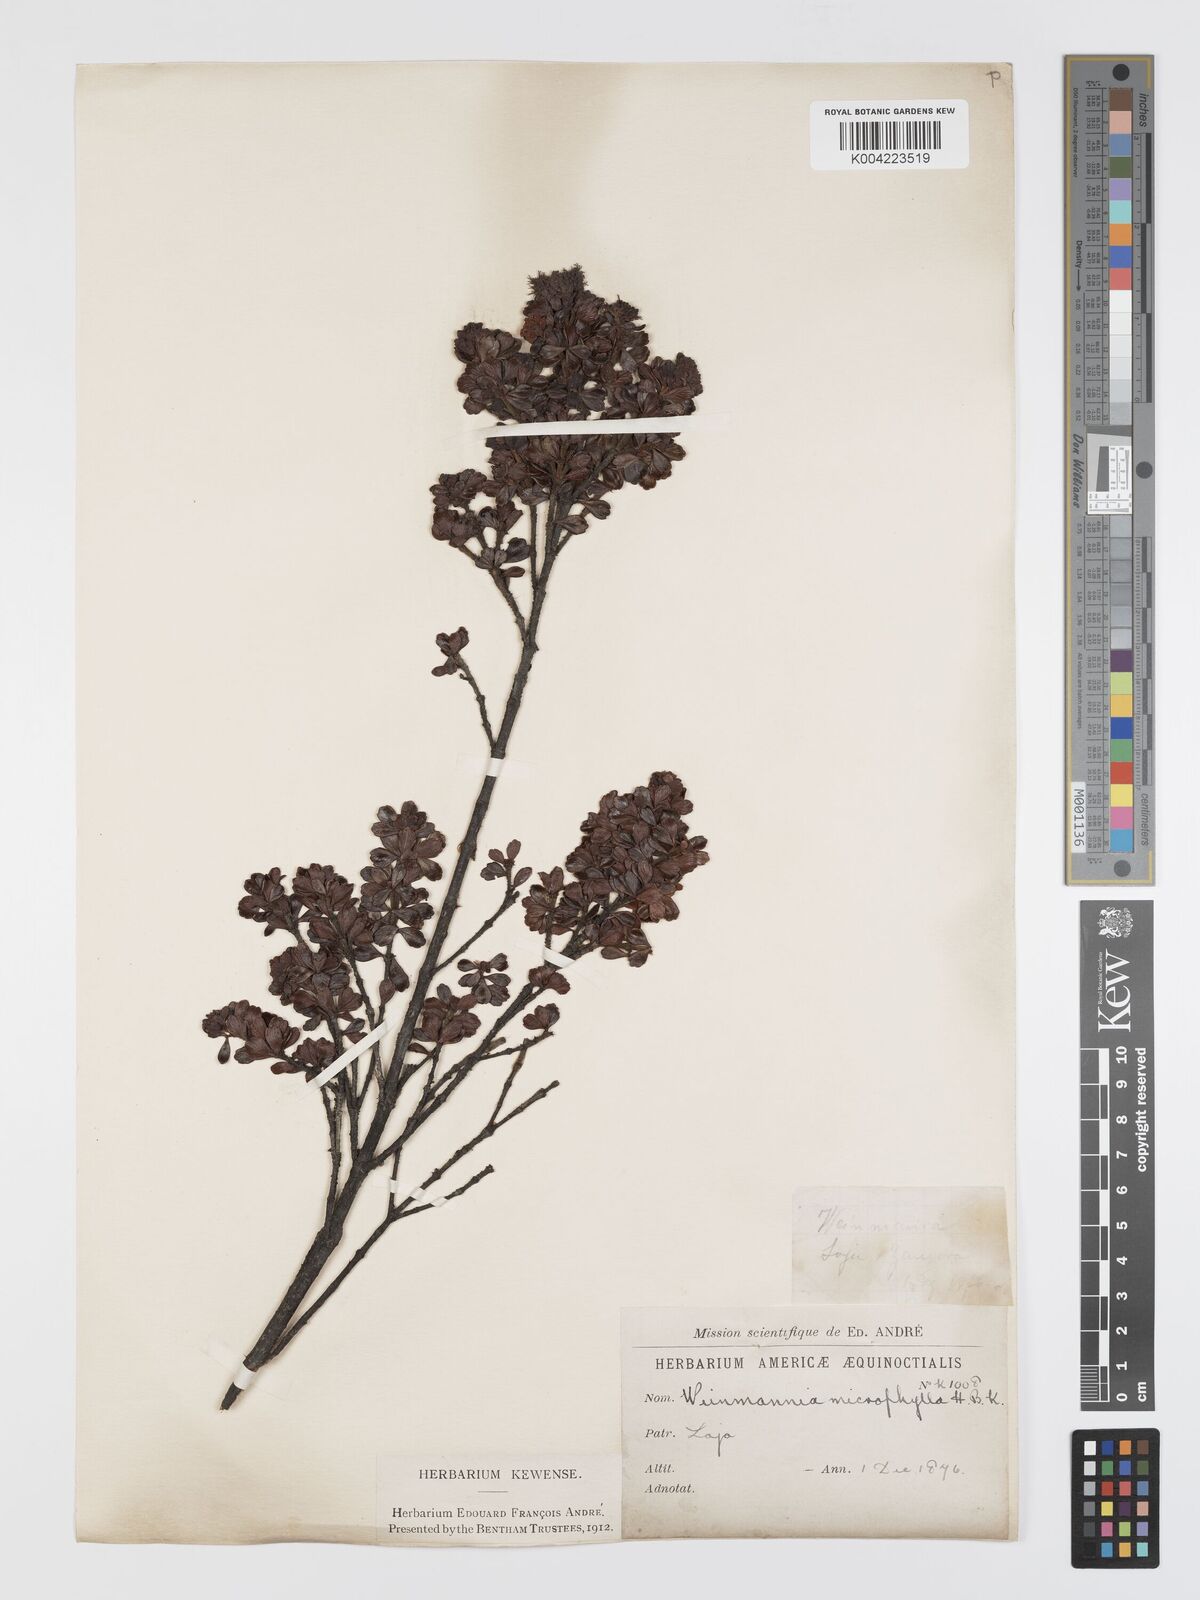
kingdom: Plantae
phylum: Tracheophyta
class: Magnoliopsida
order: Oxalidales
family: Cunoniaceae
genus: Weinmannia
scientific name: Weinmannia microphylla
